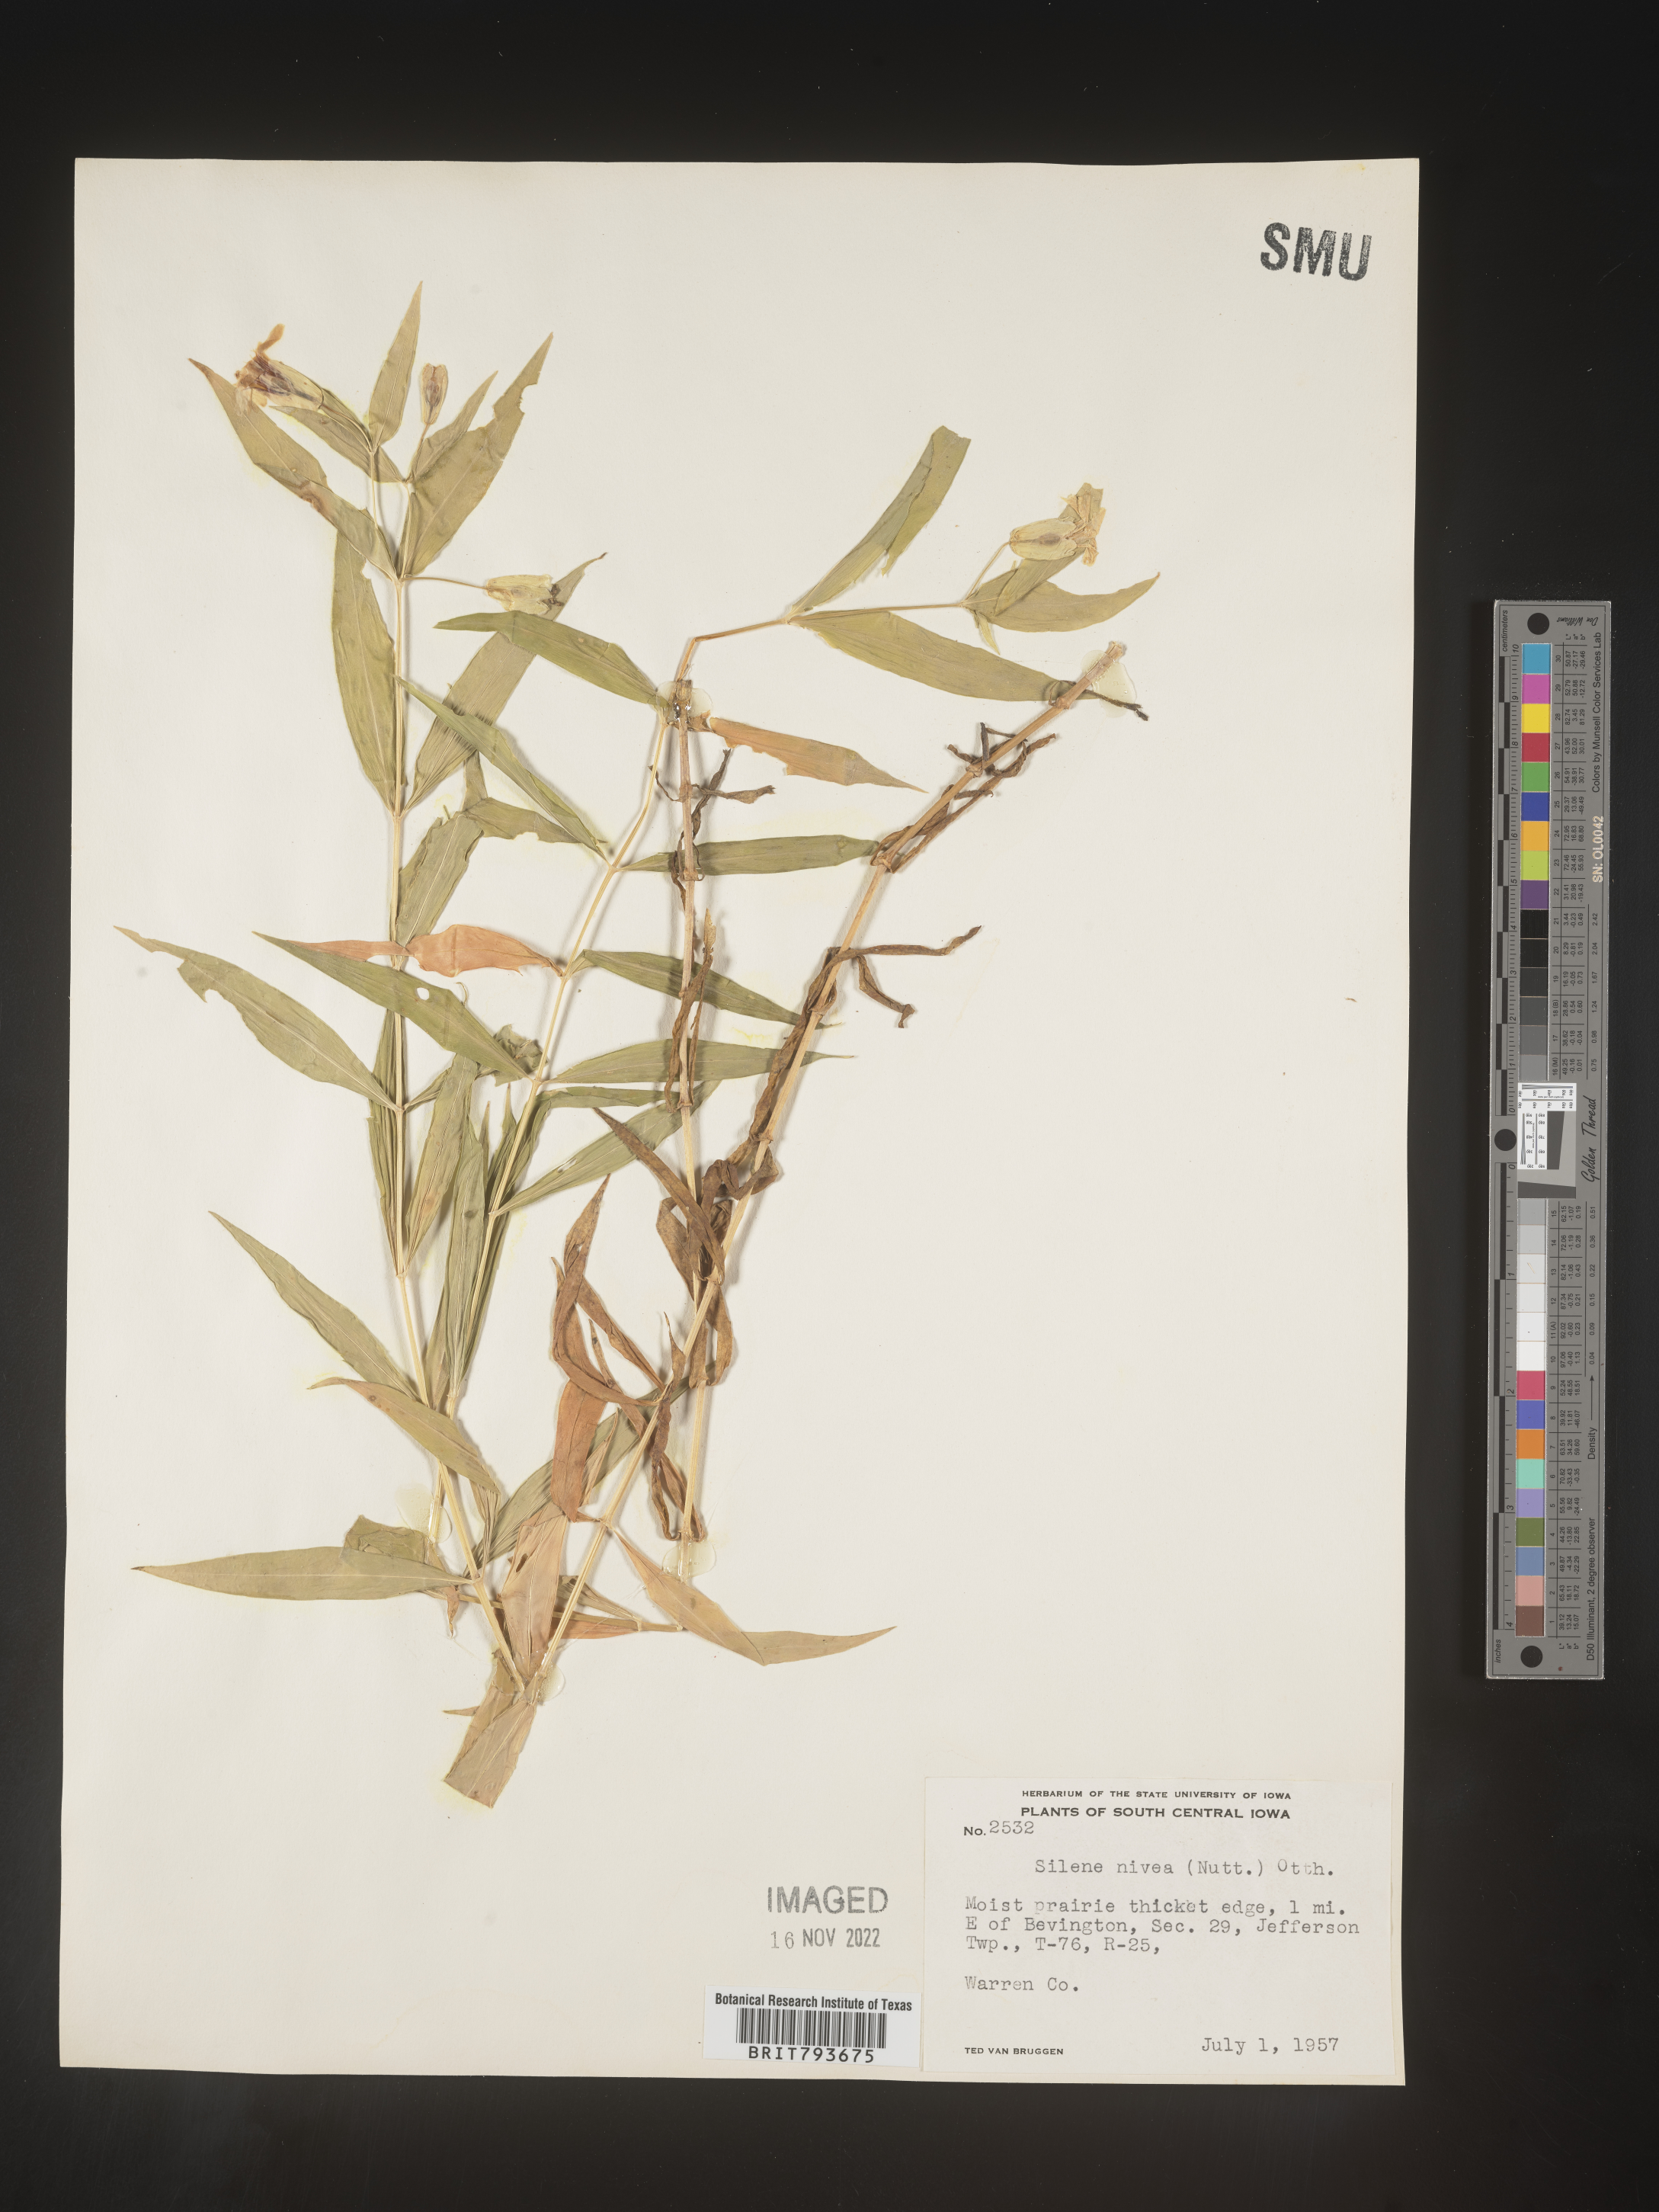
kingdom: Plantae
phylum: Tracheophyta
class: Magnoliopsida
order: Caryophyllales
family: Caryophyllaceae
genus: Silene
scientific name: Silene nivea
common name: Snowy campion
